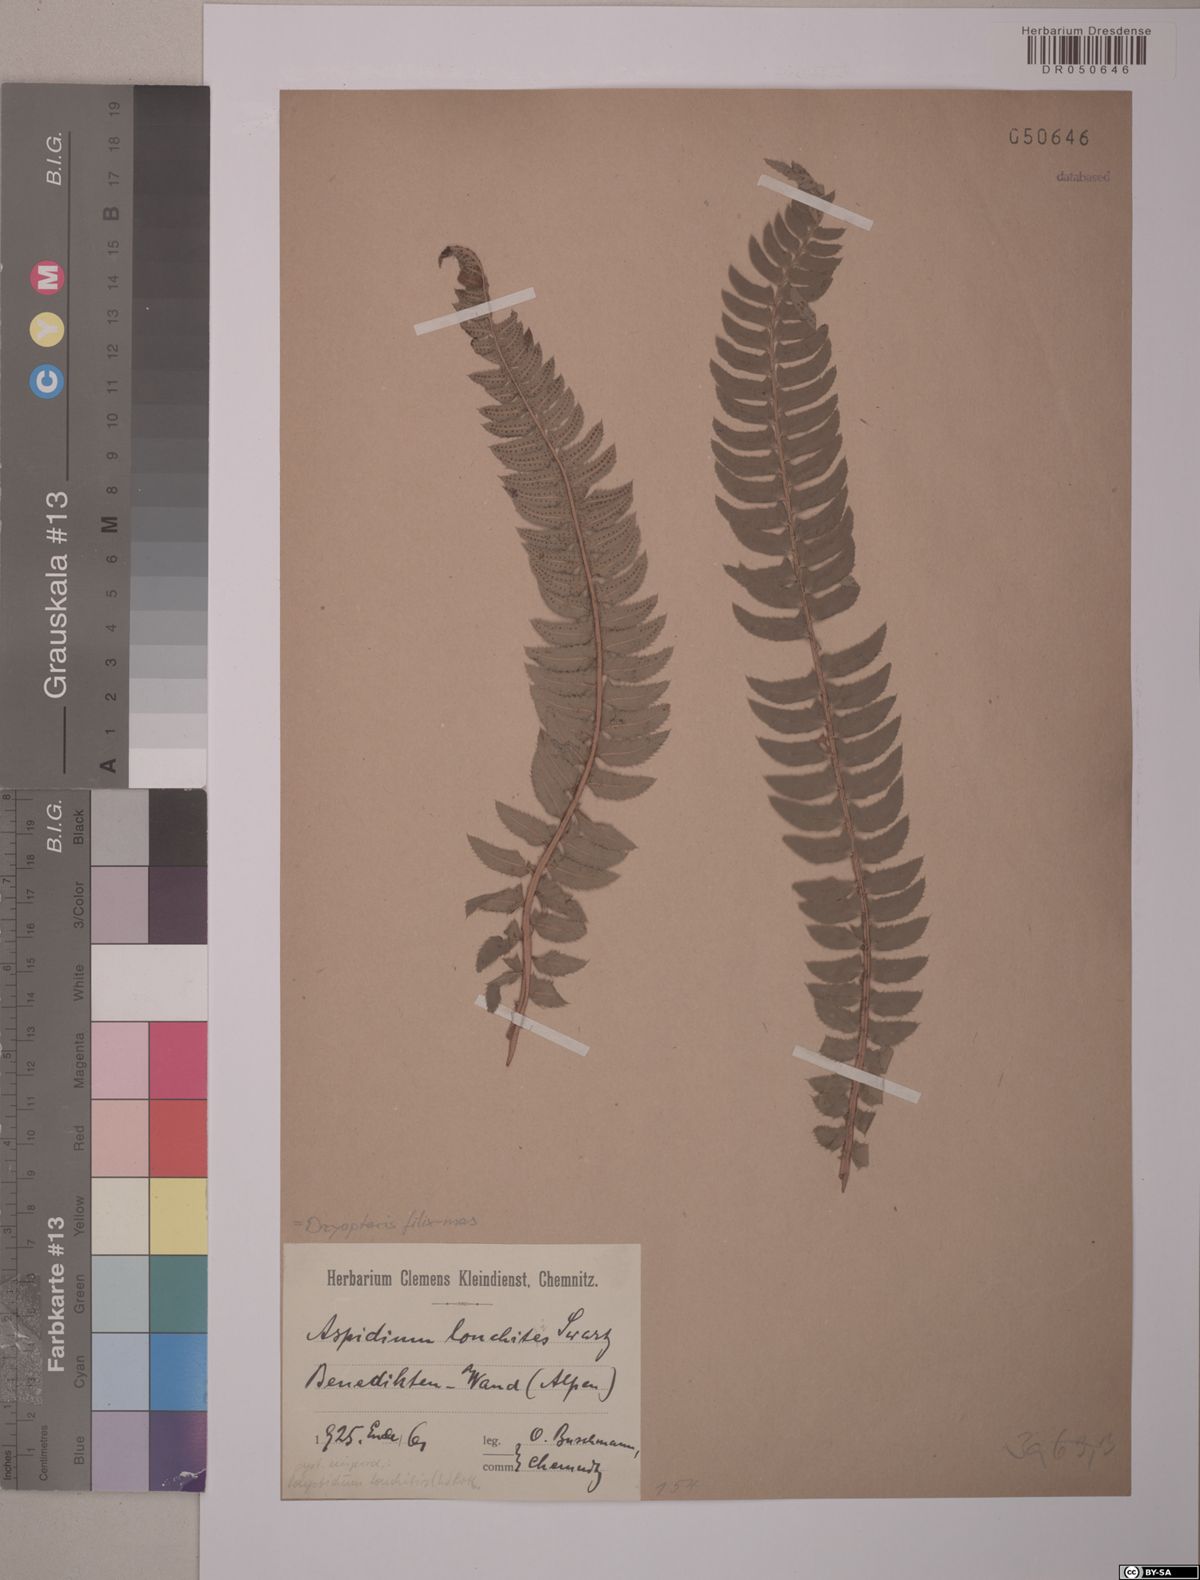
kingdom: Plantae
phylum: Tracheophyta
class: Polypodiopsida
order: Polypodiales
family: Dryopteridaceae
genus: Polystichum
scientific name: Polystichum lonchitis
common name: Holly fern
